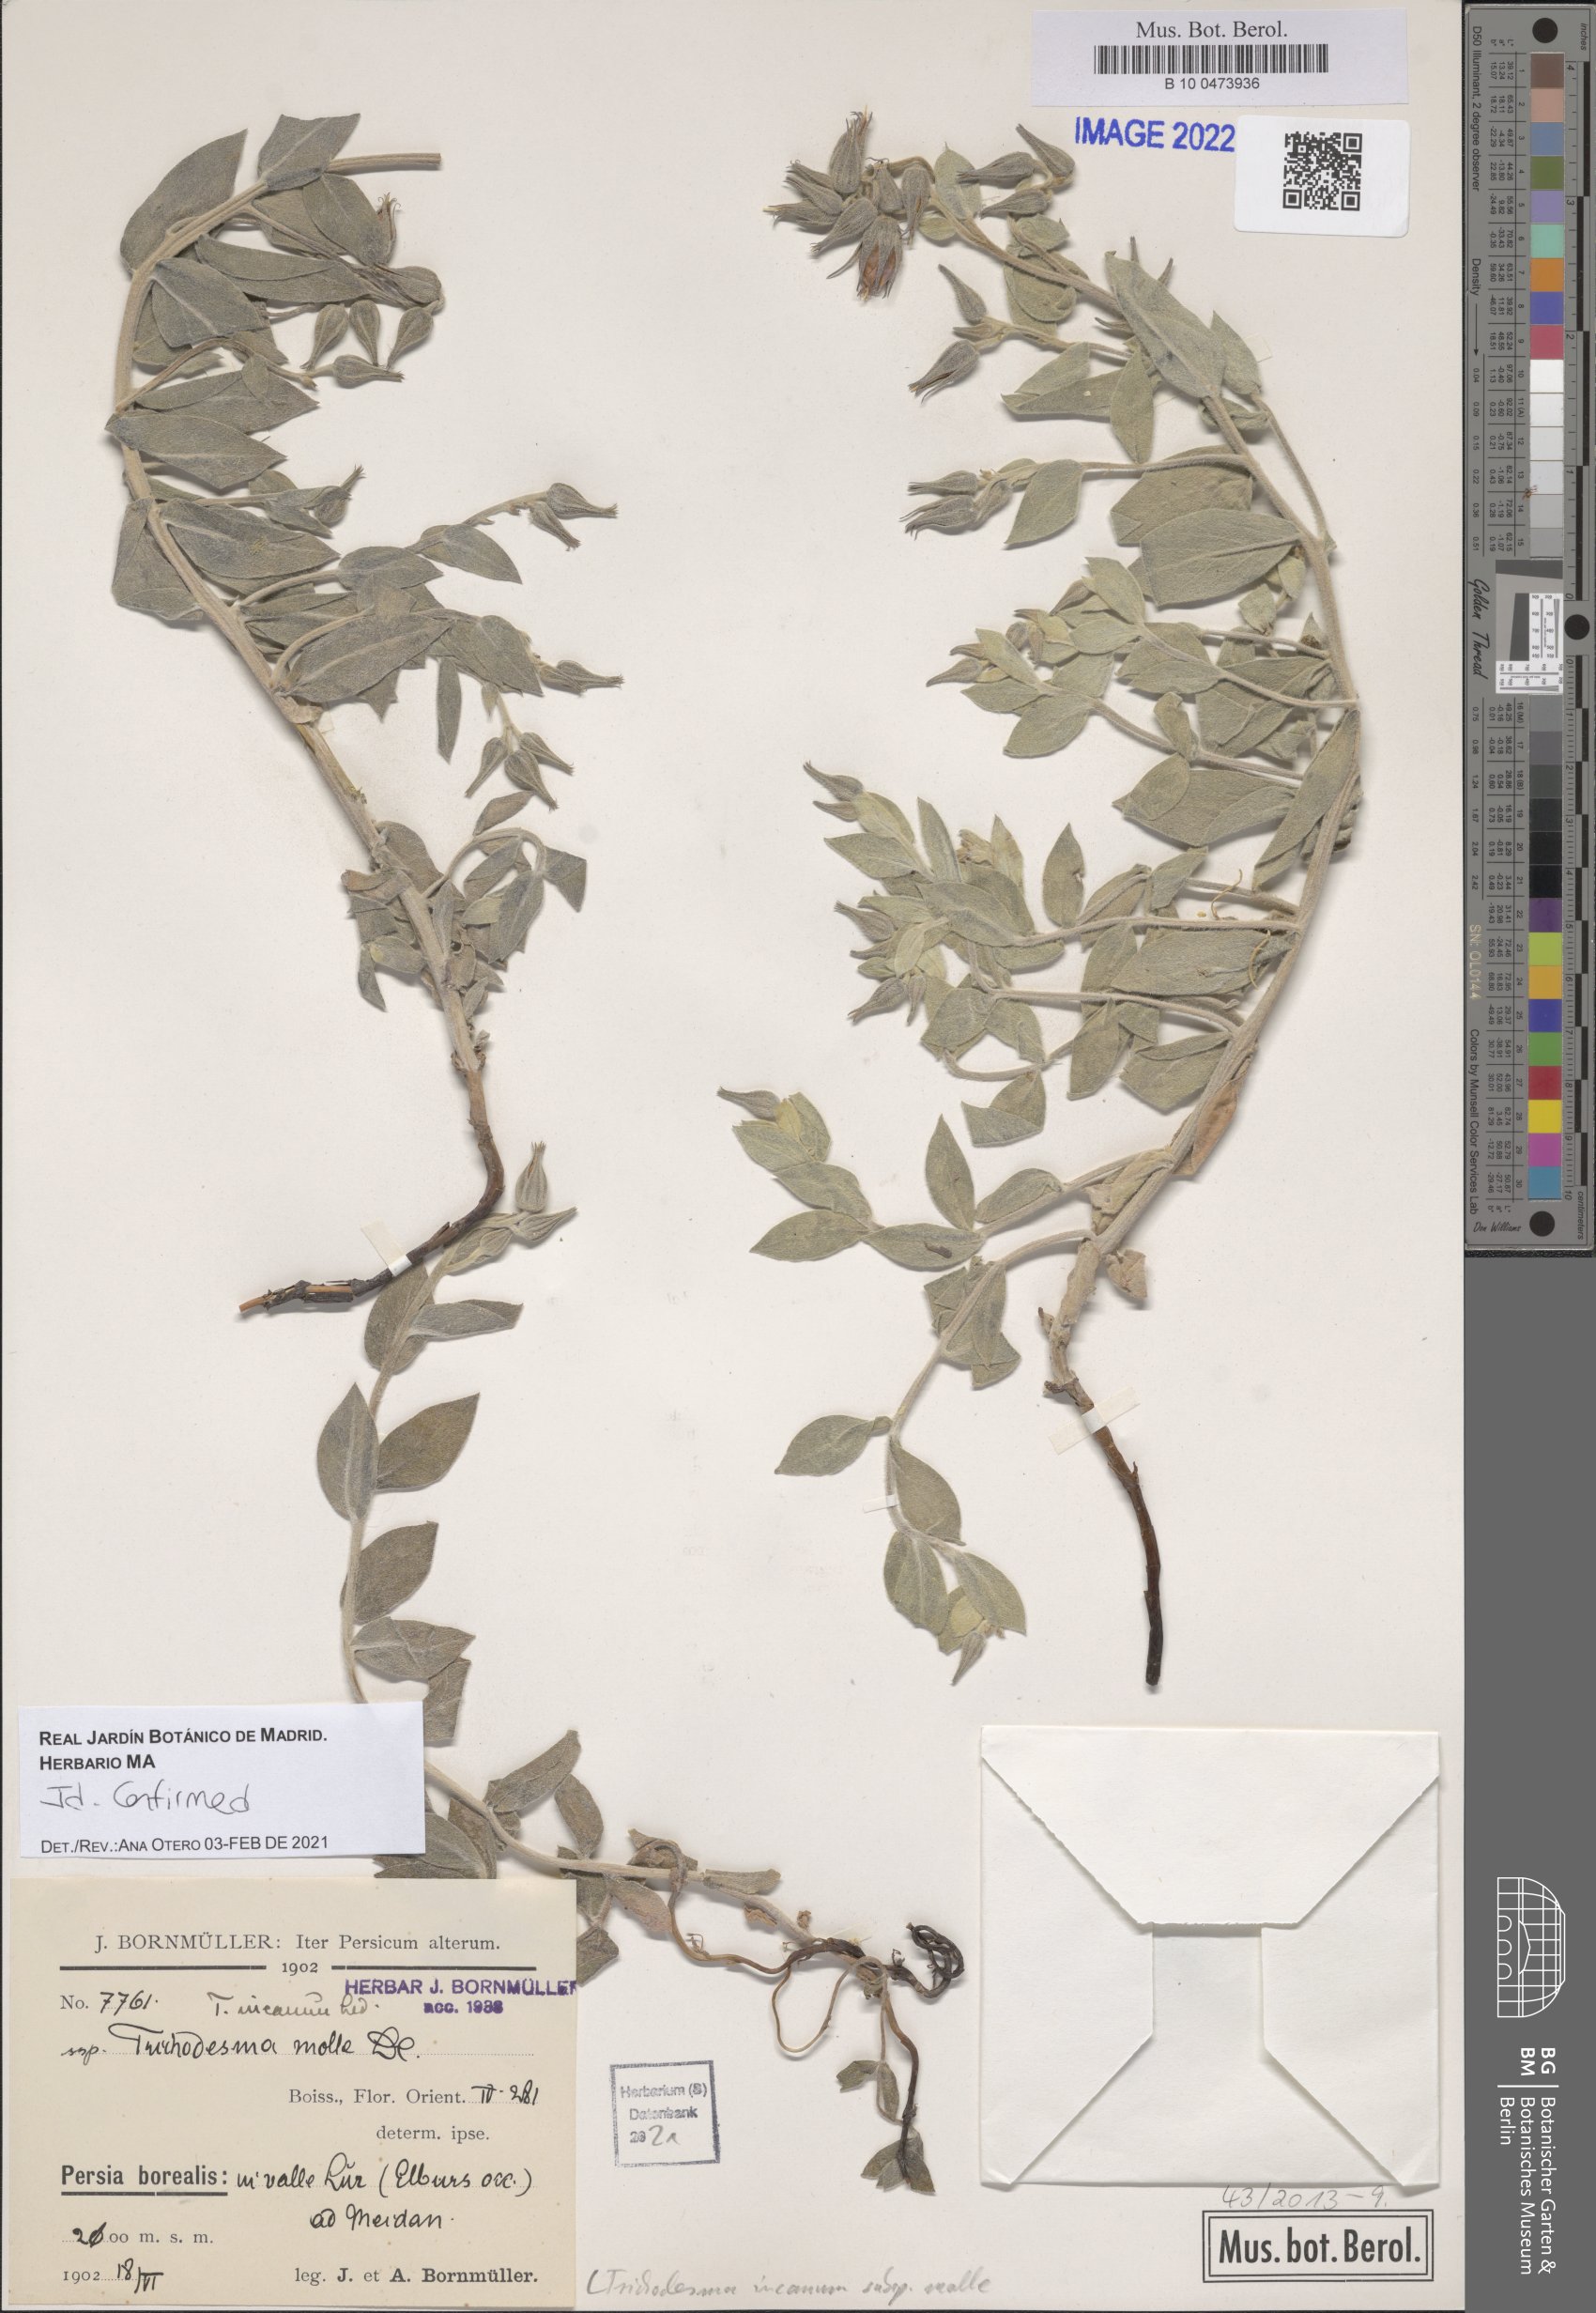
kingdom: Plantae
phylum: Tracheophyta
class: Magnoliopsida
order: Boraginales
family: Boraginaceae
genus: Trichodesma
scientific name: Trichodesma incanum
